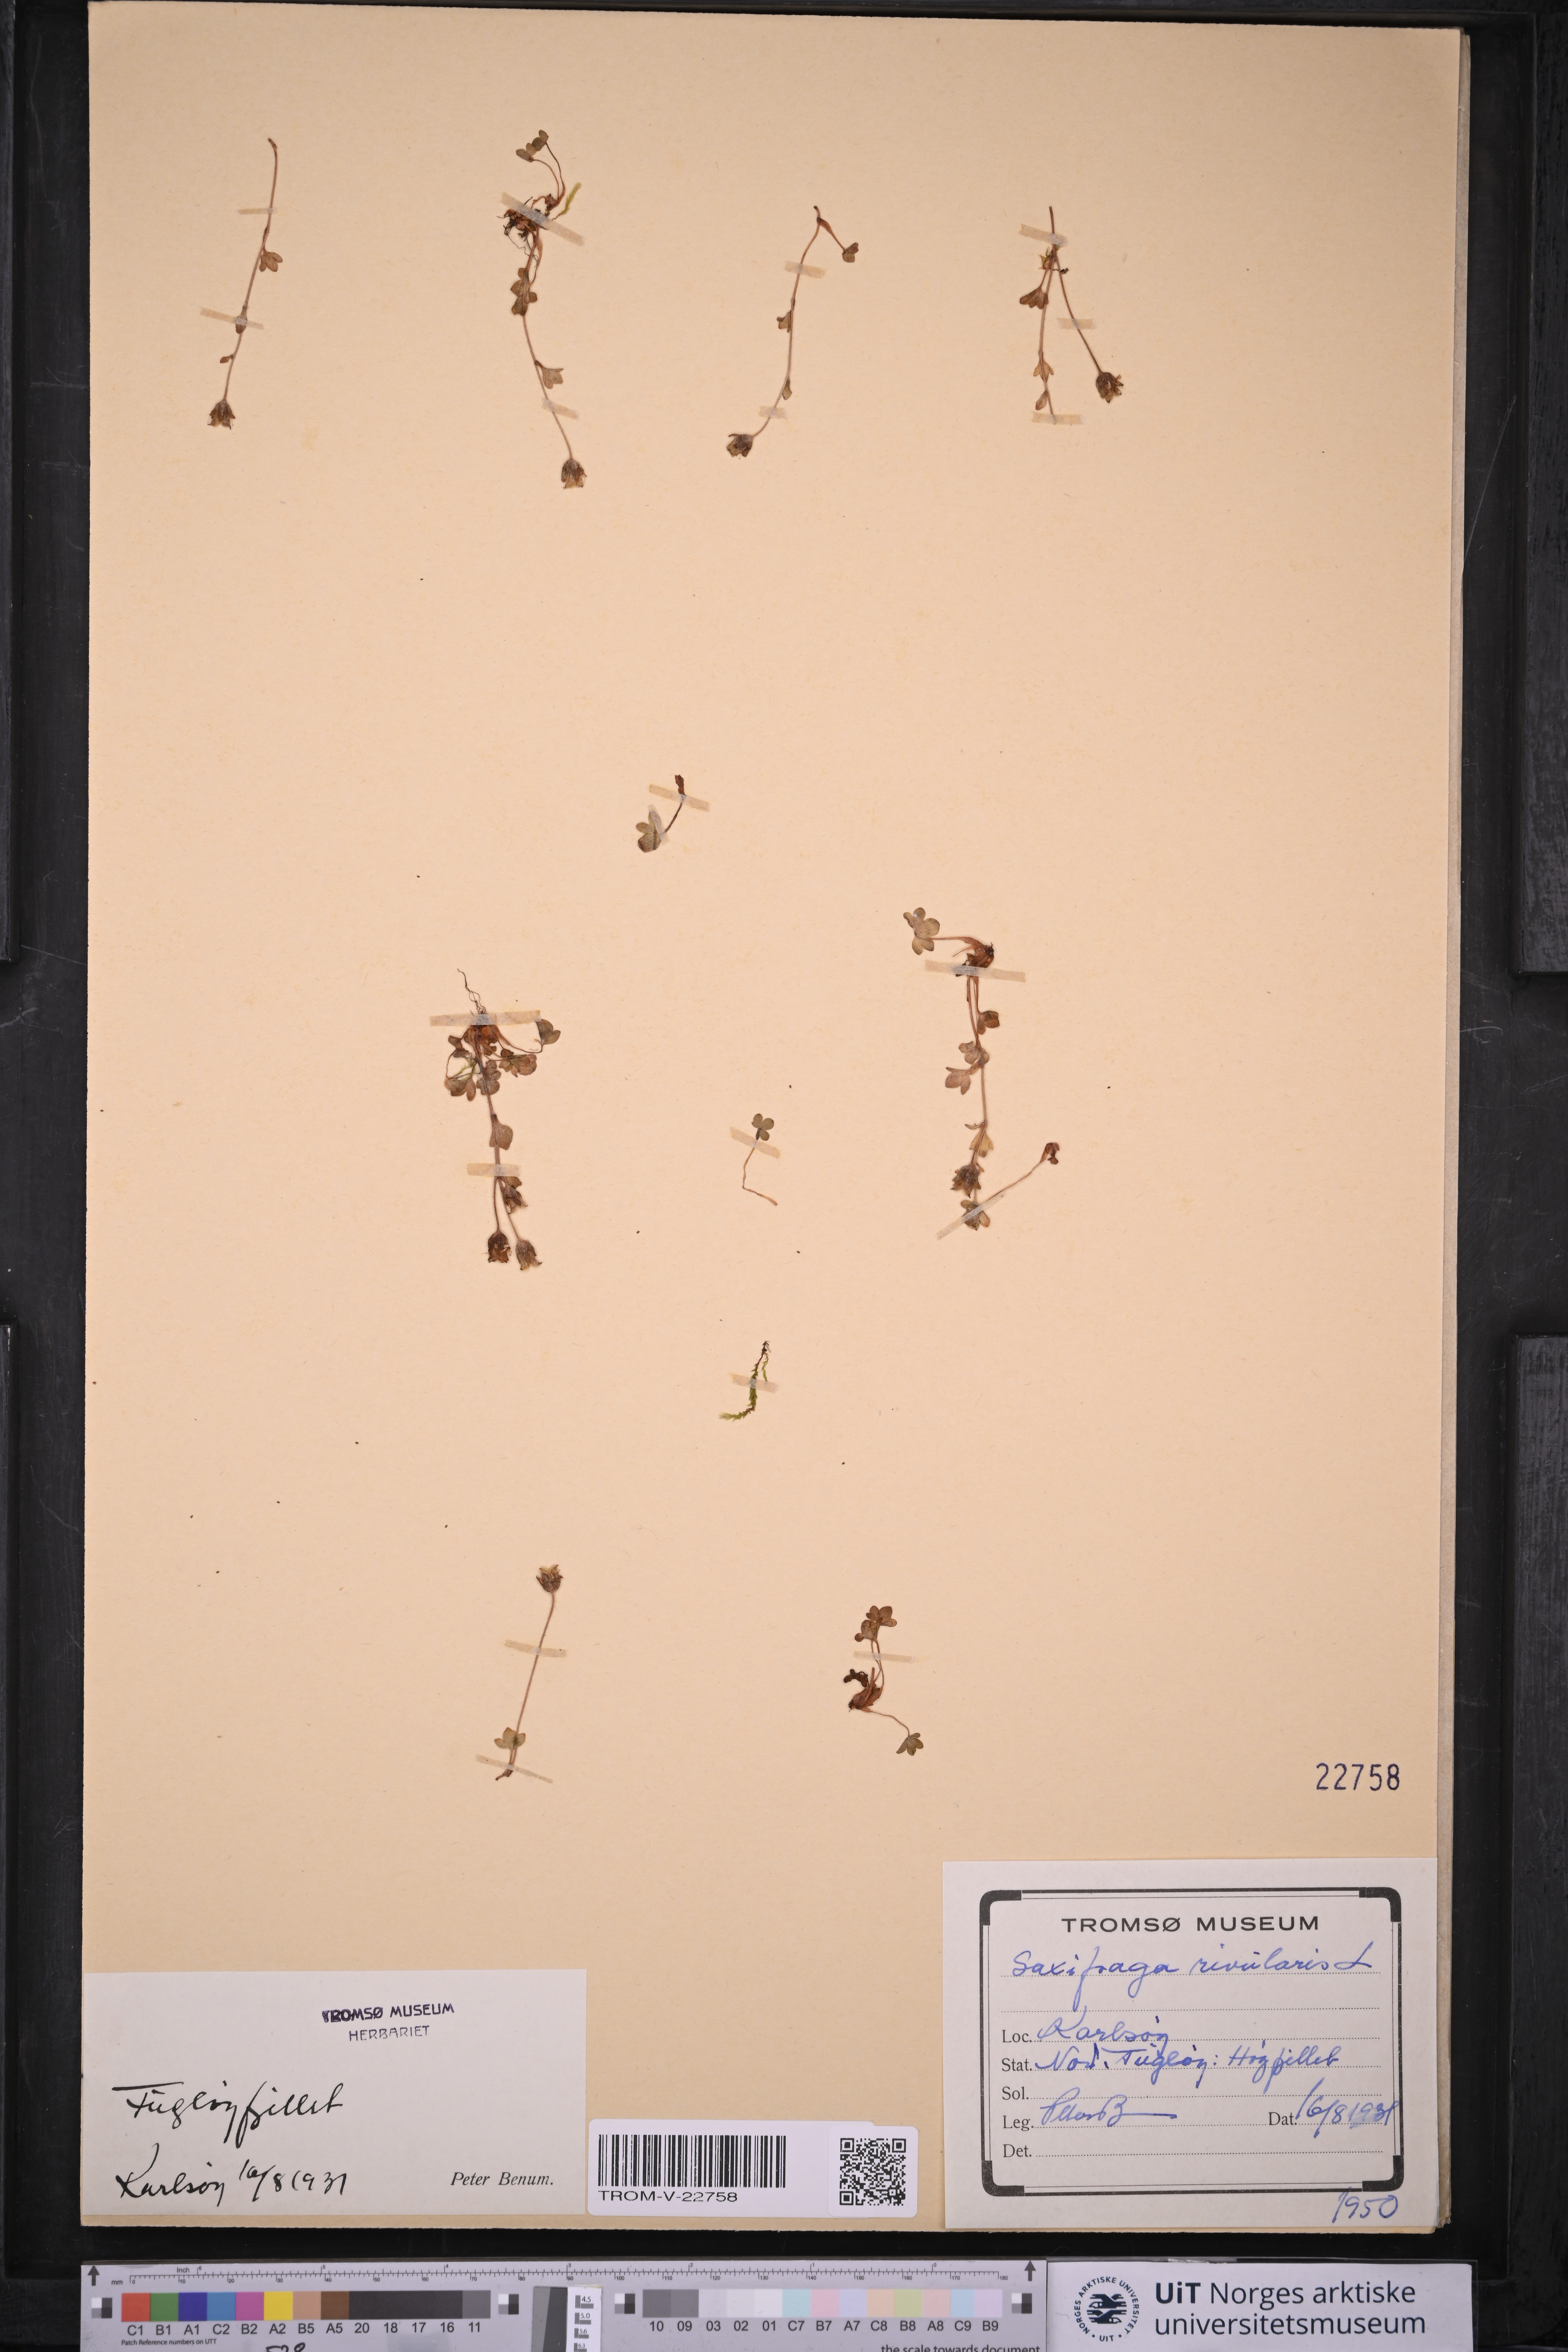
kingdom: Plantae
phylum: Tracheophyta
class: Magnoliopsida
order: Saxifragales
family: Saxifragaceae
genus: Saxifraga
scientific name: Saxifraga rivularis
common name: Highland saxifrage
